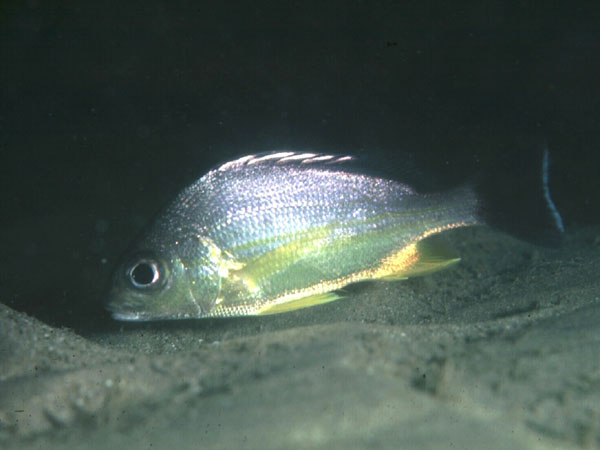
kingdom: Animalia
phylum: Chordata
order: Perciformes
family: Haemulidae
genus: Pomadasys
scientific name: Pomadasys guoraca
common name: Grunter
